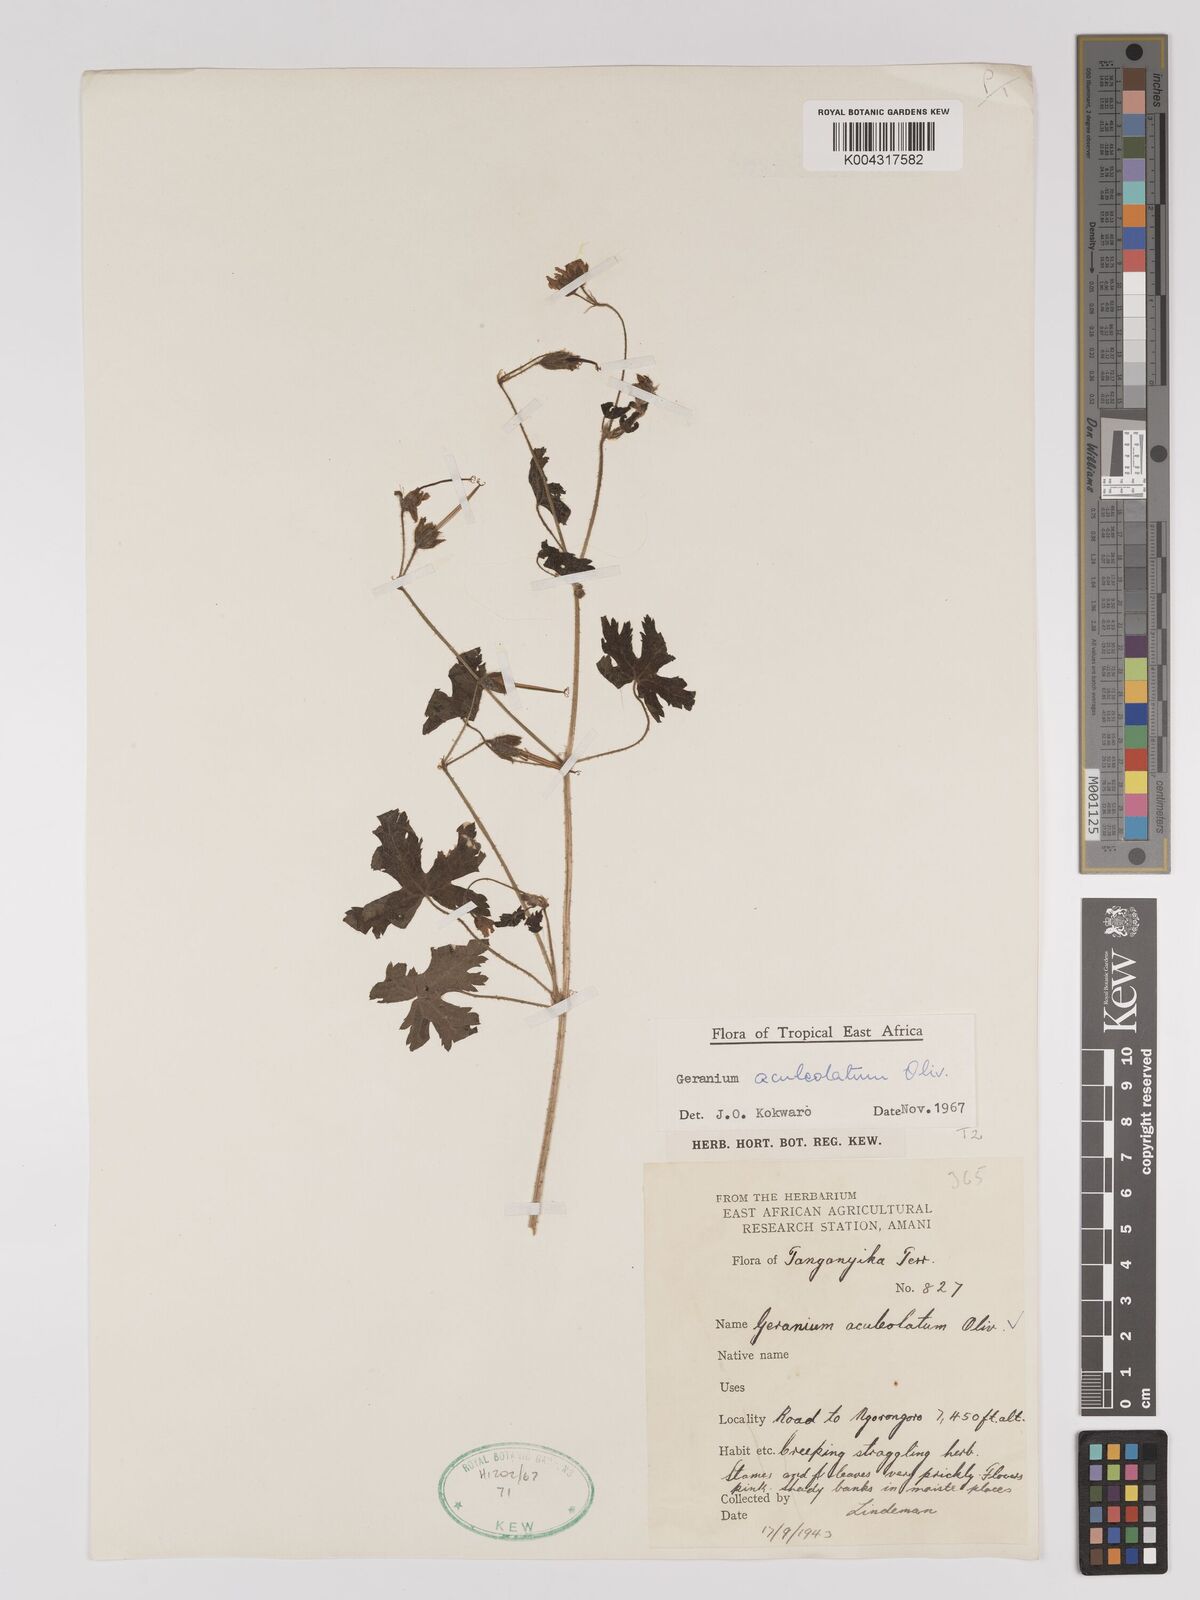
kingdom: Plantae
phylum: Tracheophyta
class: Magnoliopsida
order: Geraniales
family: Geraniaceae
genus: Geranium
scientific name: Geranium aculeolatum
